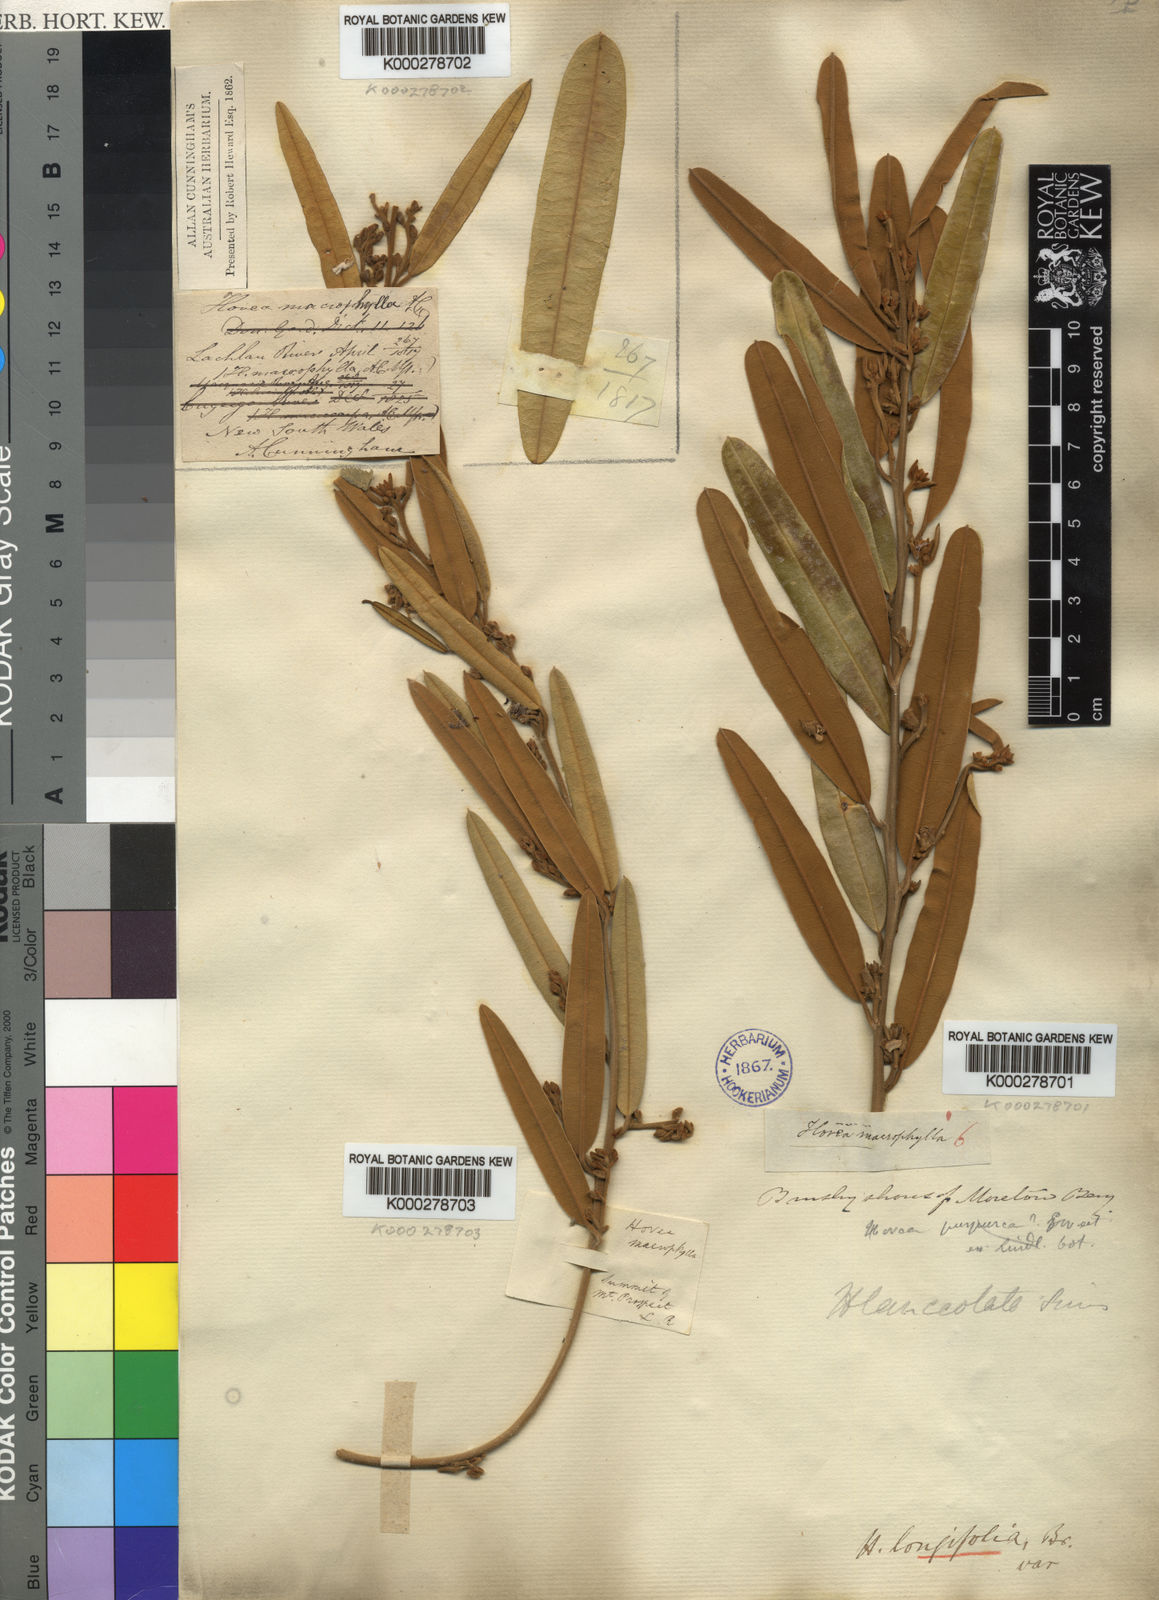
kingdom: Plantae
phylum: Tracheophyta
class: Magnoliopsida
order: Fabales
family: Fabaceae
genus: Hovea
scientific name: Hovea longifolia
